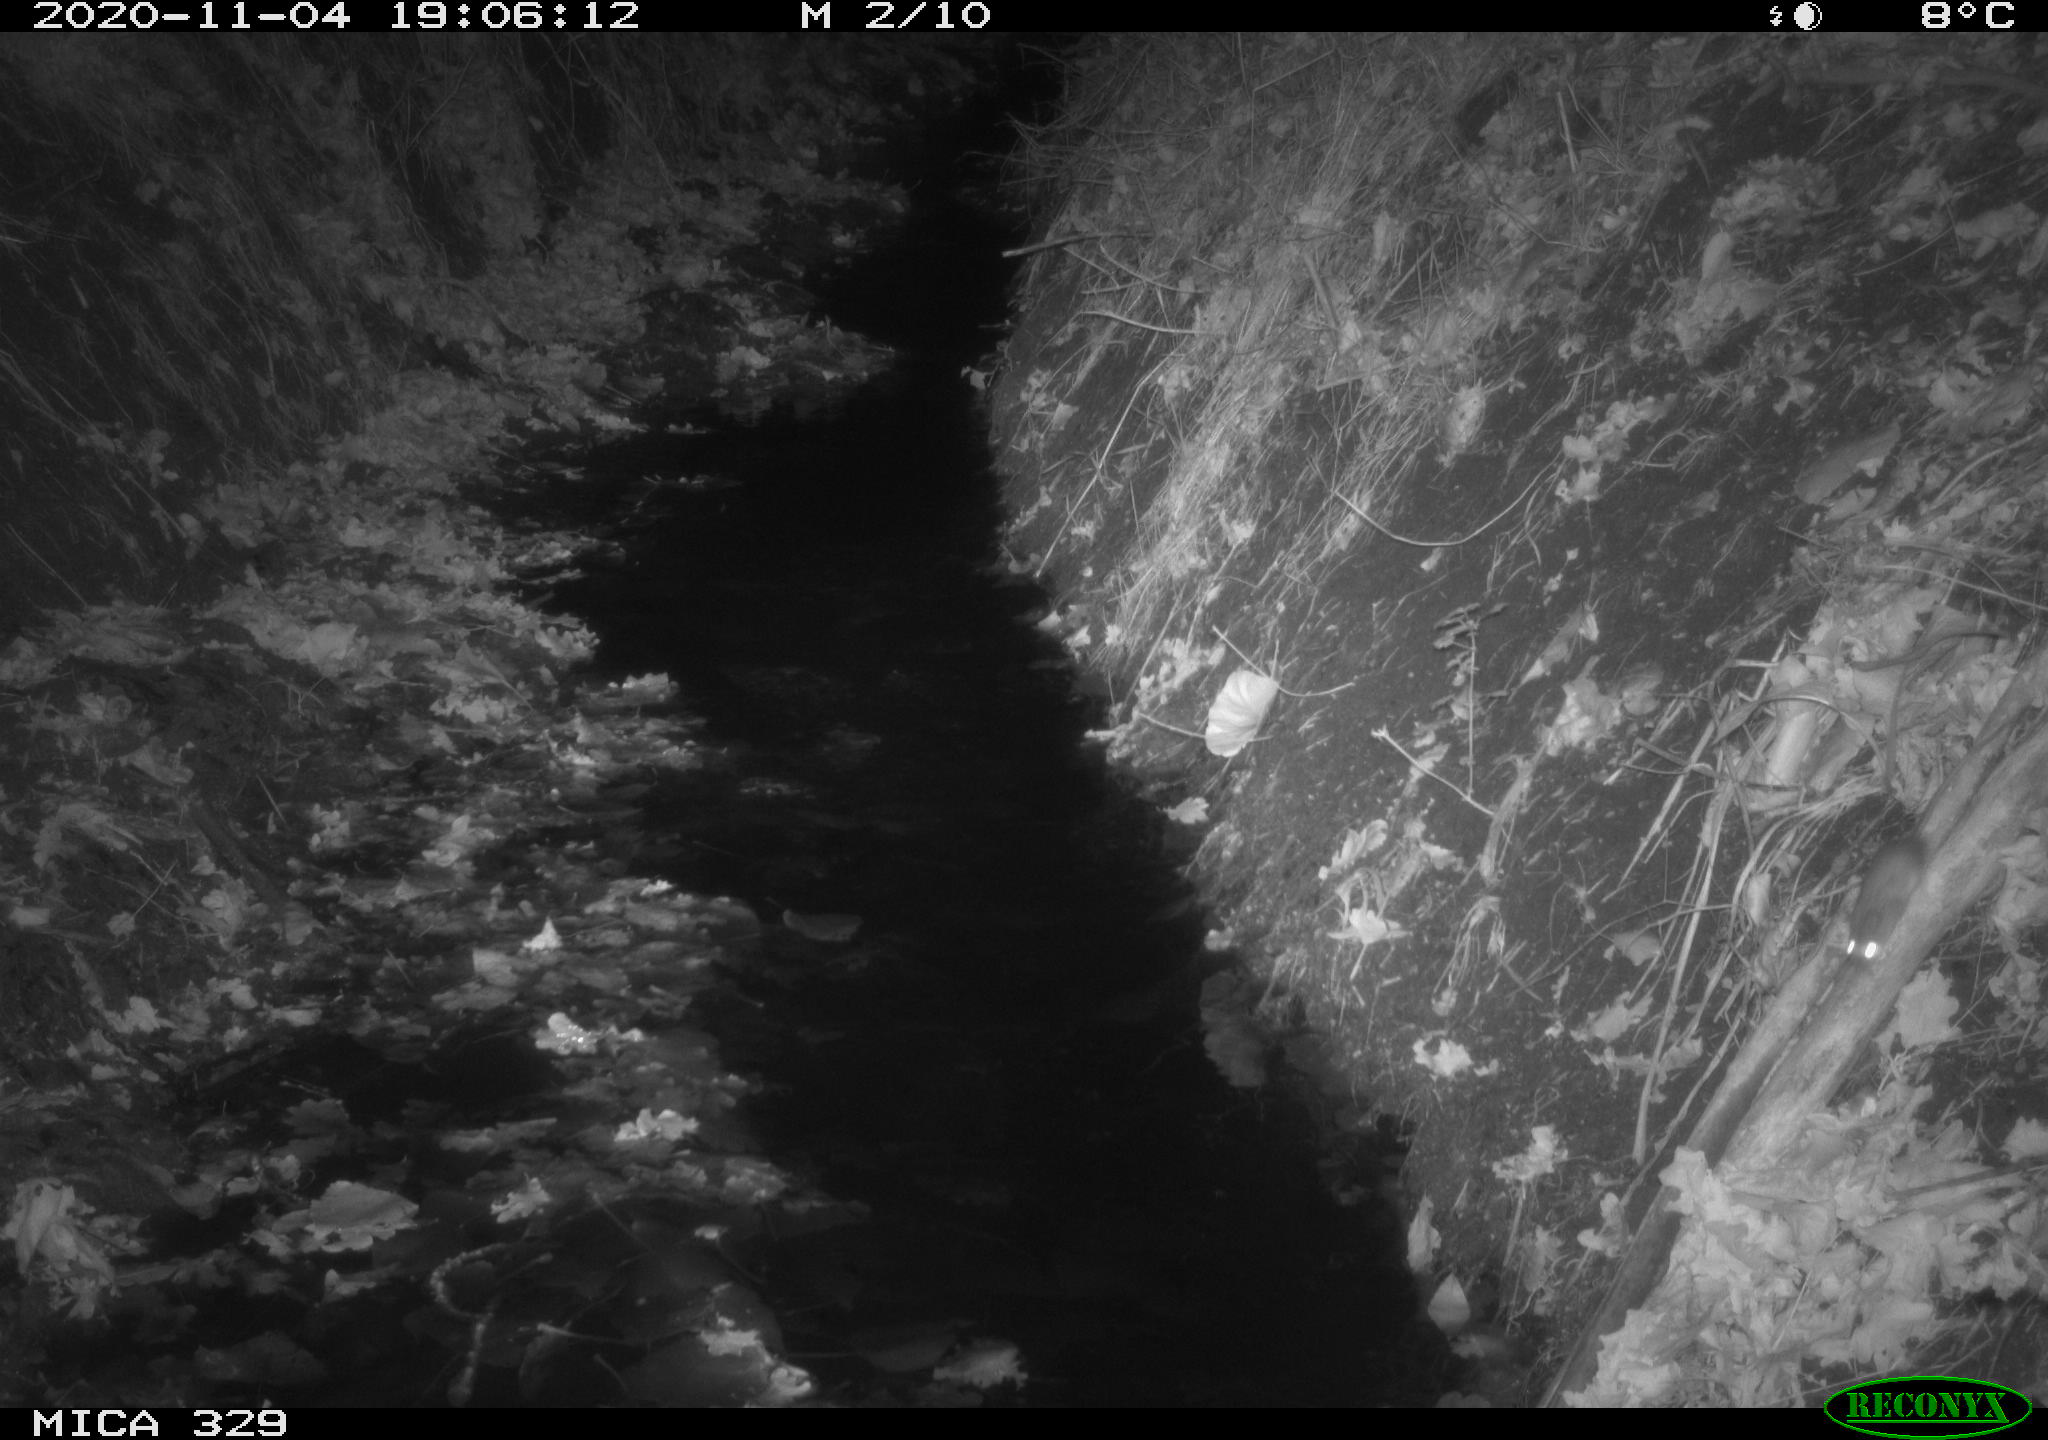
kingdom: Animalia
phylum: Chordata
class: Mammalia
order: Rodentia
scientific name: Rodentia
